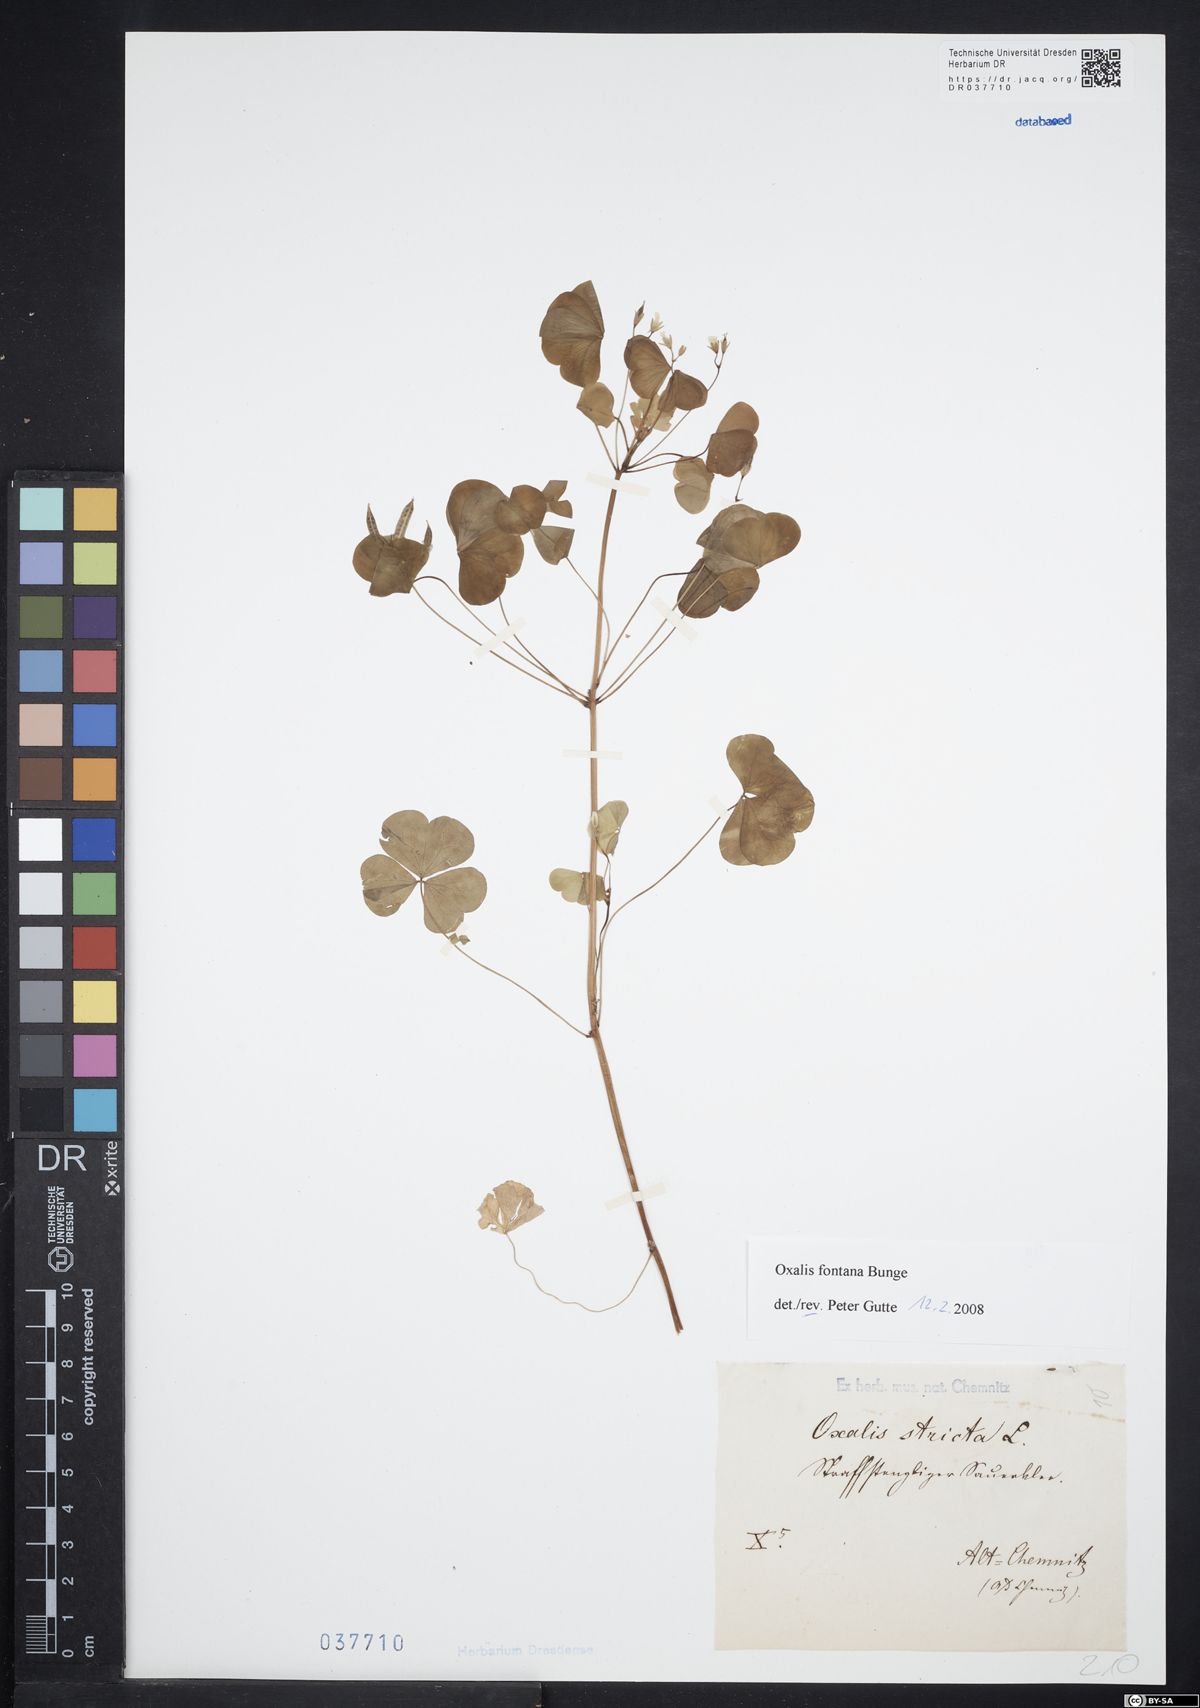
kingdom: Plantae
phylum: Tracheophyta
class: Magnoliopsida
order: Oxalidales
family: Oxalidaceae
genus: Oxalis
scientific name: Oxalis stricta
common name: Upright yellow-sorrel
